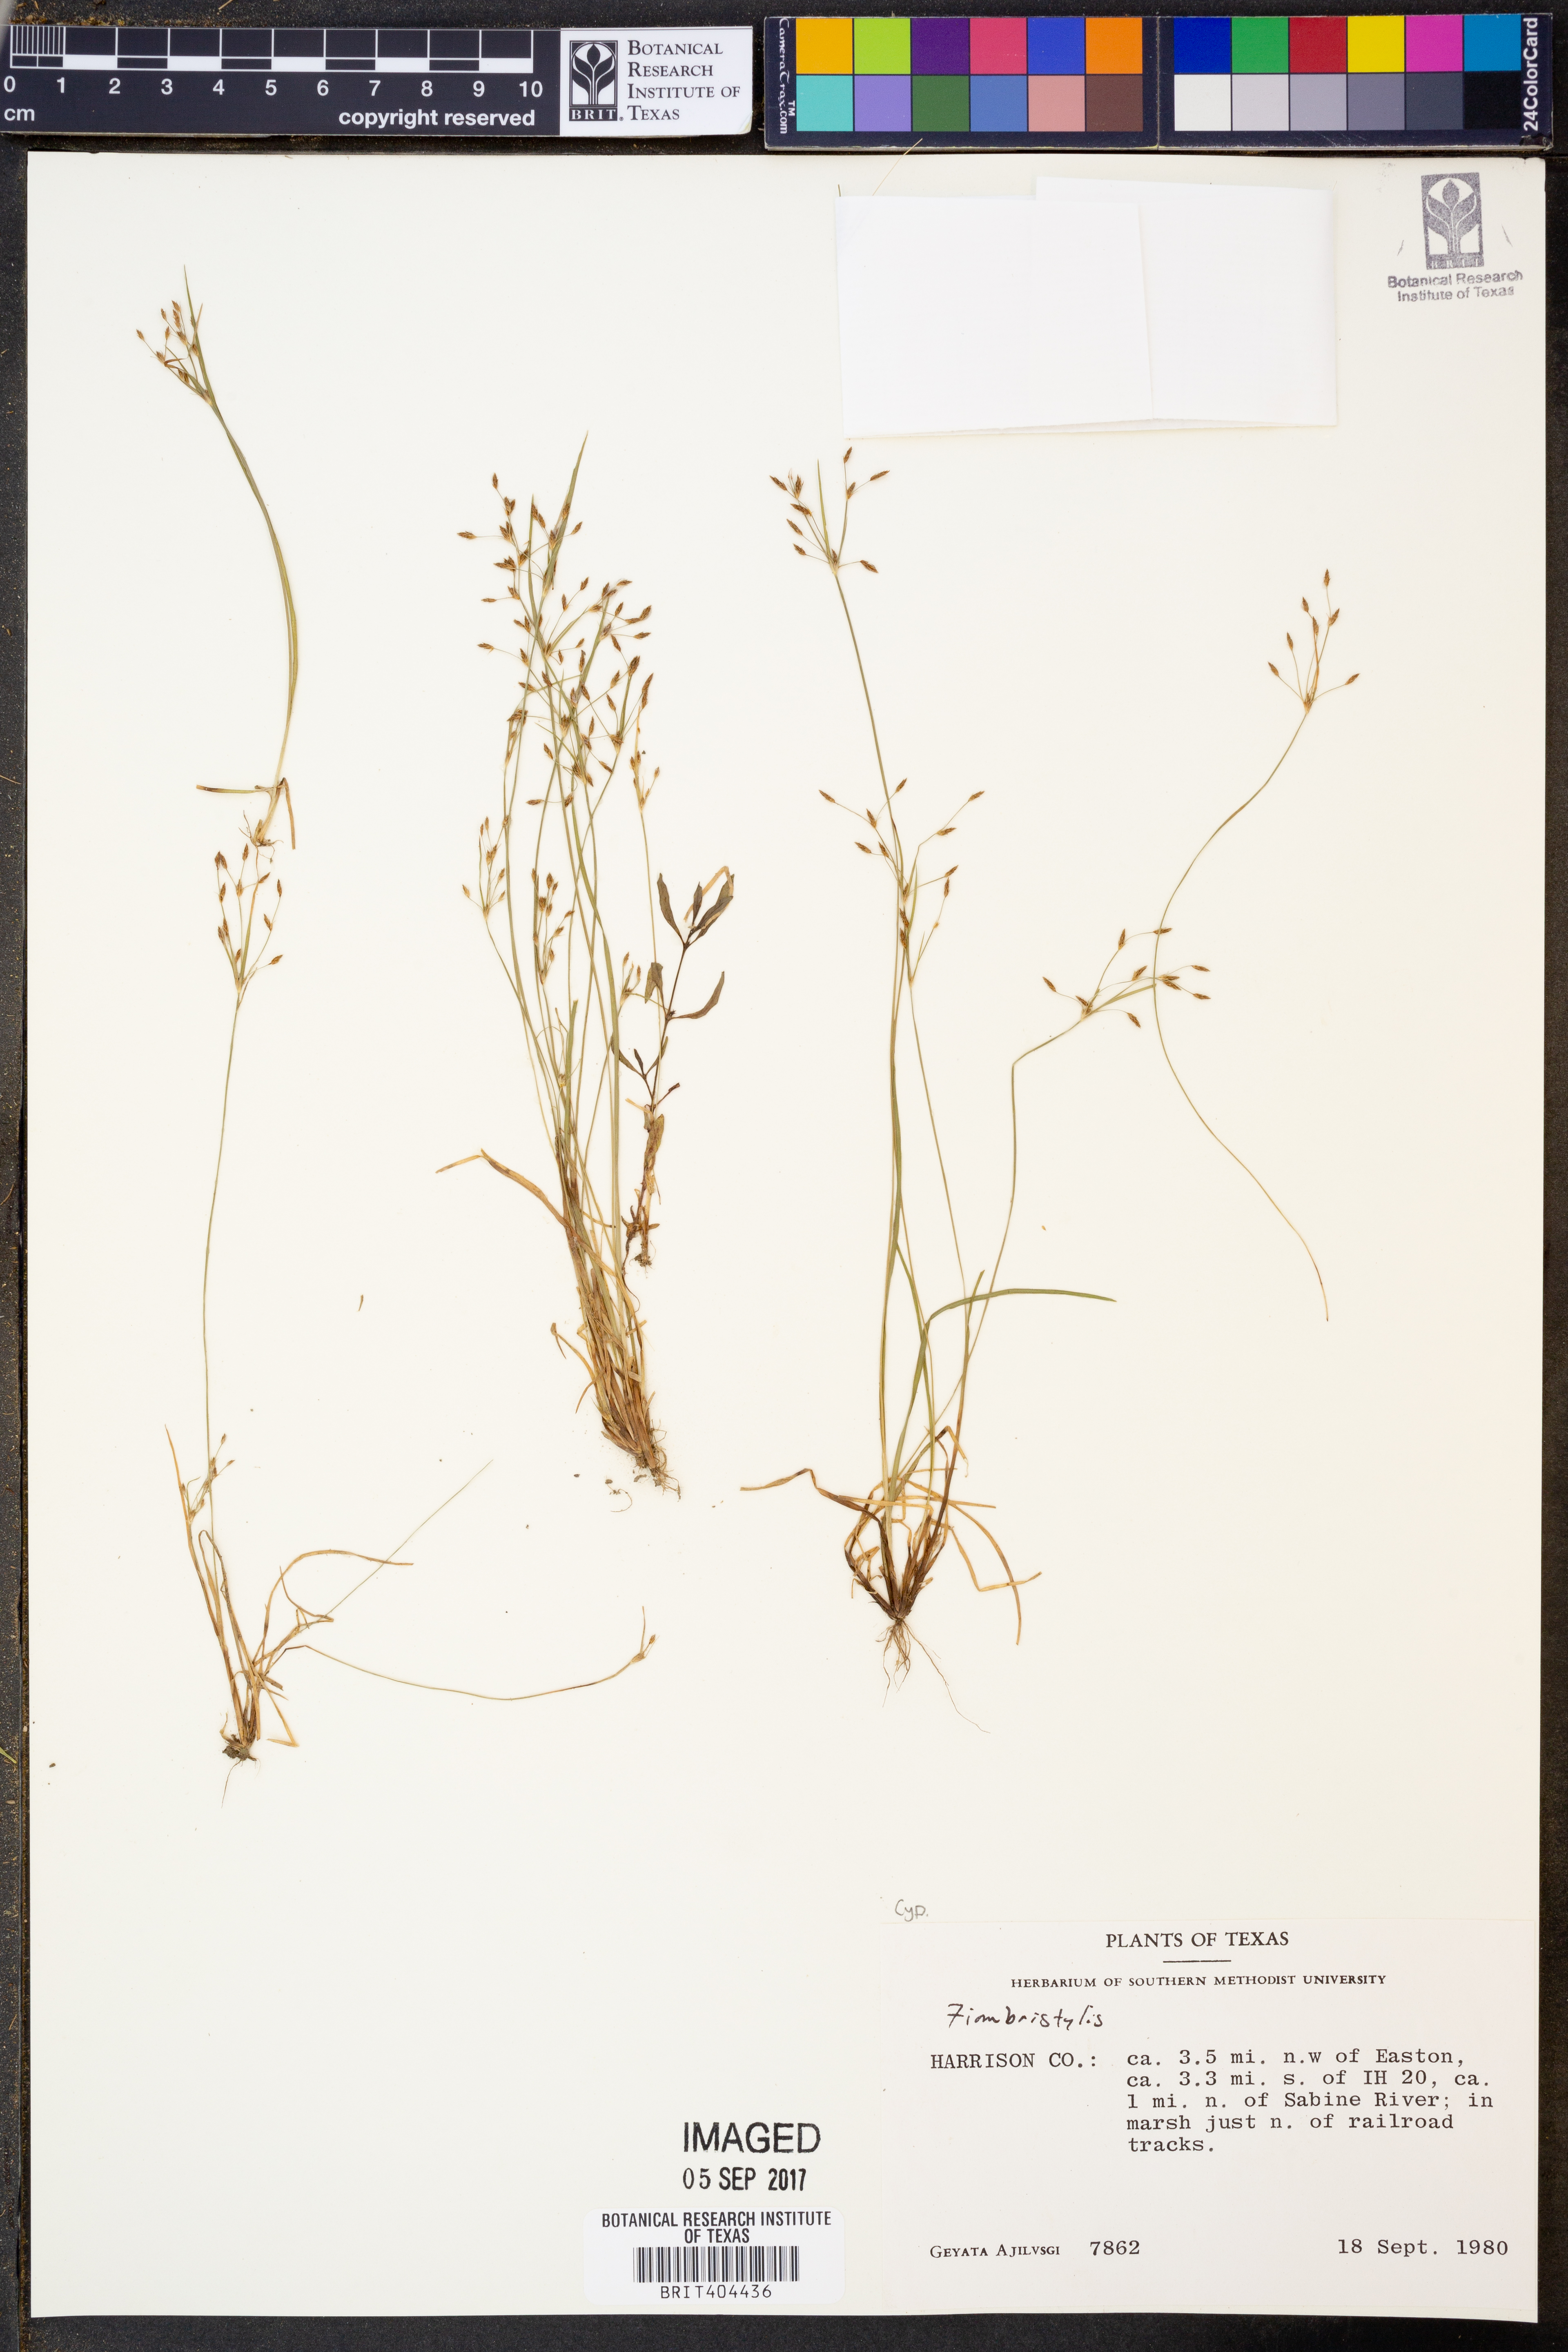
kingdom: Plantae
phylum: Tracheophyta
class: Liliopsida
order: Poales
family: Cyperaceae
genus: Fimbristylis
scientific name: Fimbristylis
